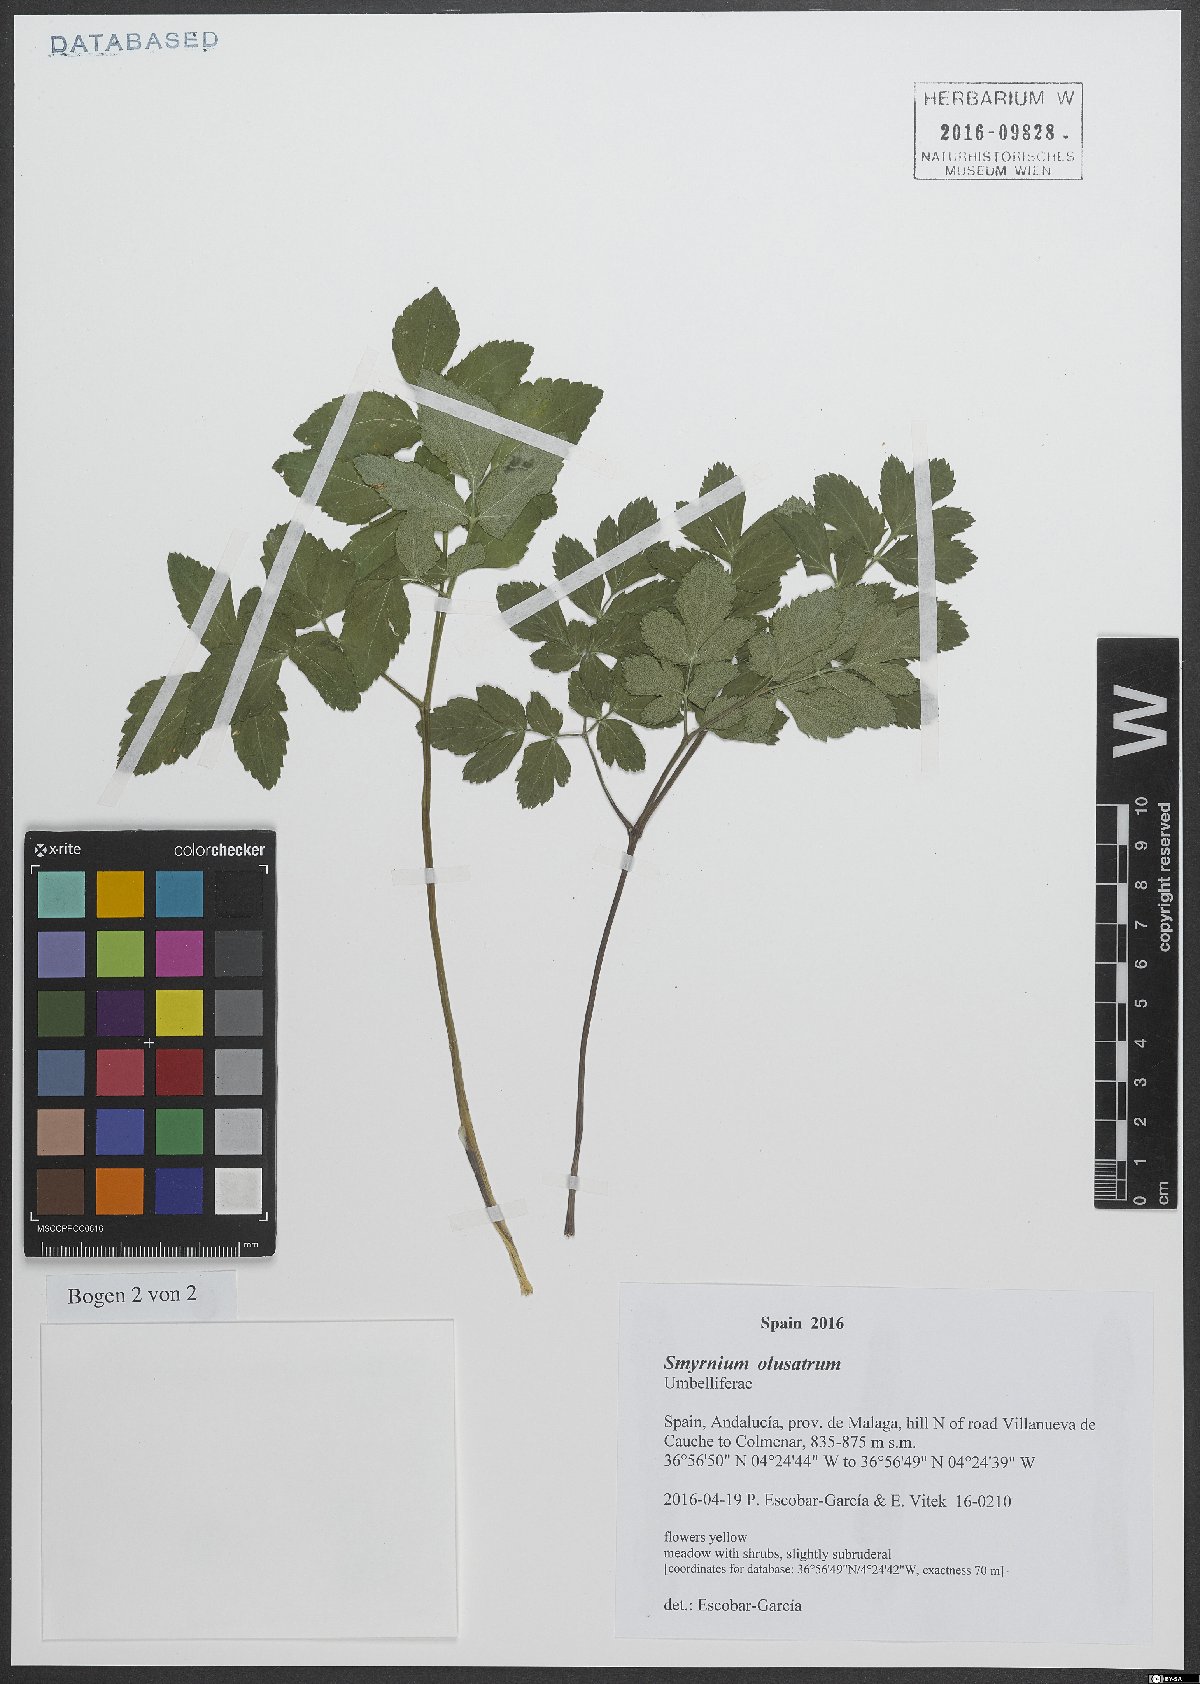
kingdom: Plantae
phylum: Tracheophyta
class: Magnoliopsida
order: Apiales
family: Apiaceae
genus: Smyrnium
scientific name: Smyrnium olusatrum
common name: Alexanders
